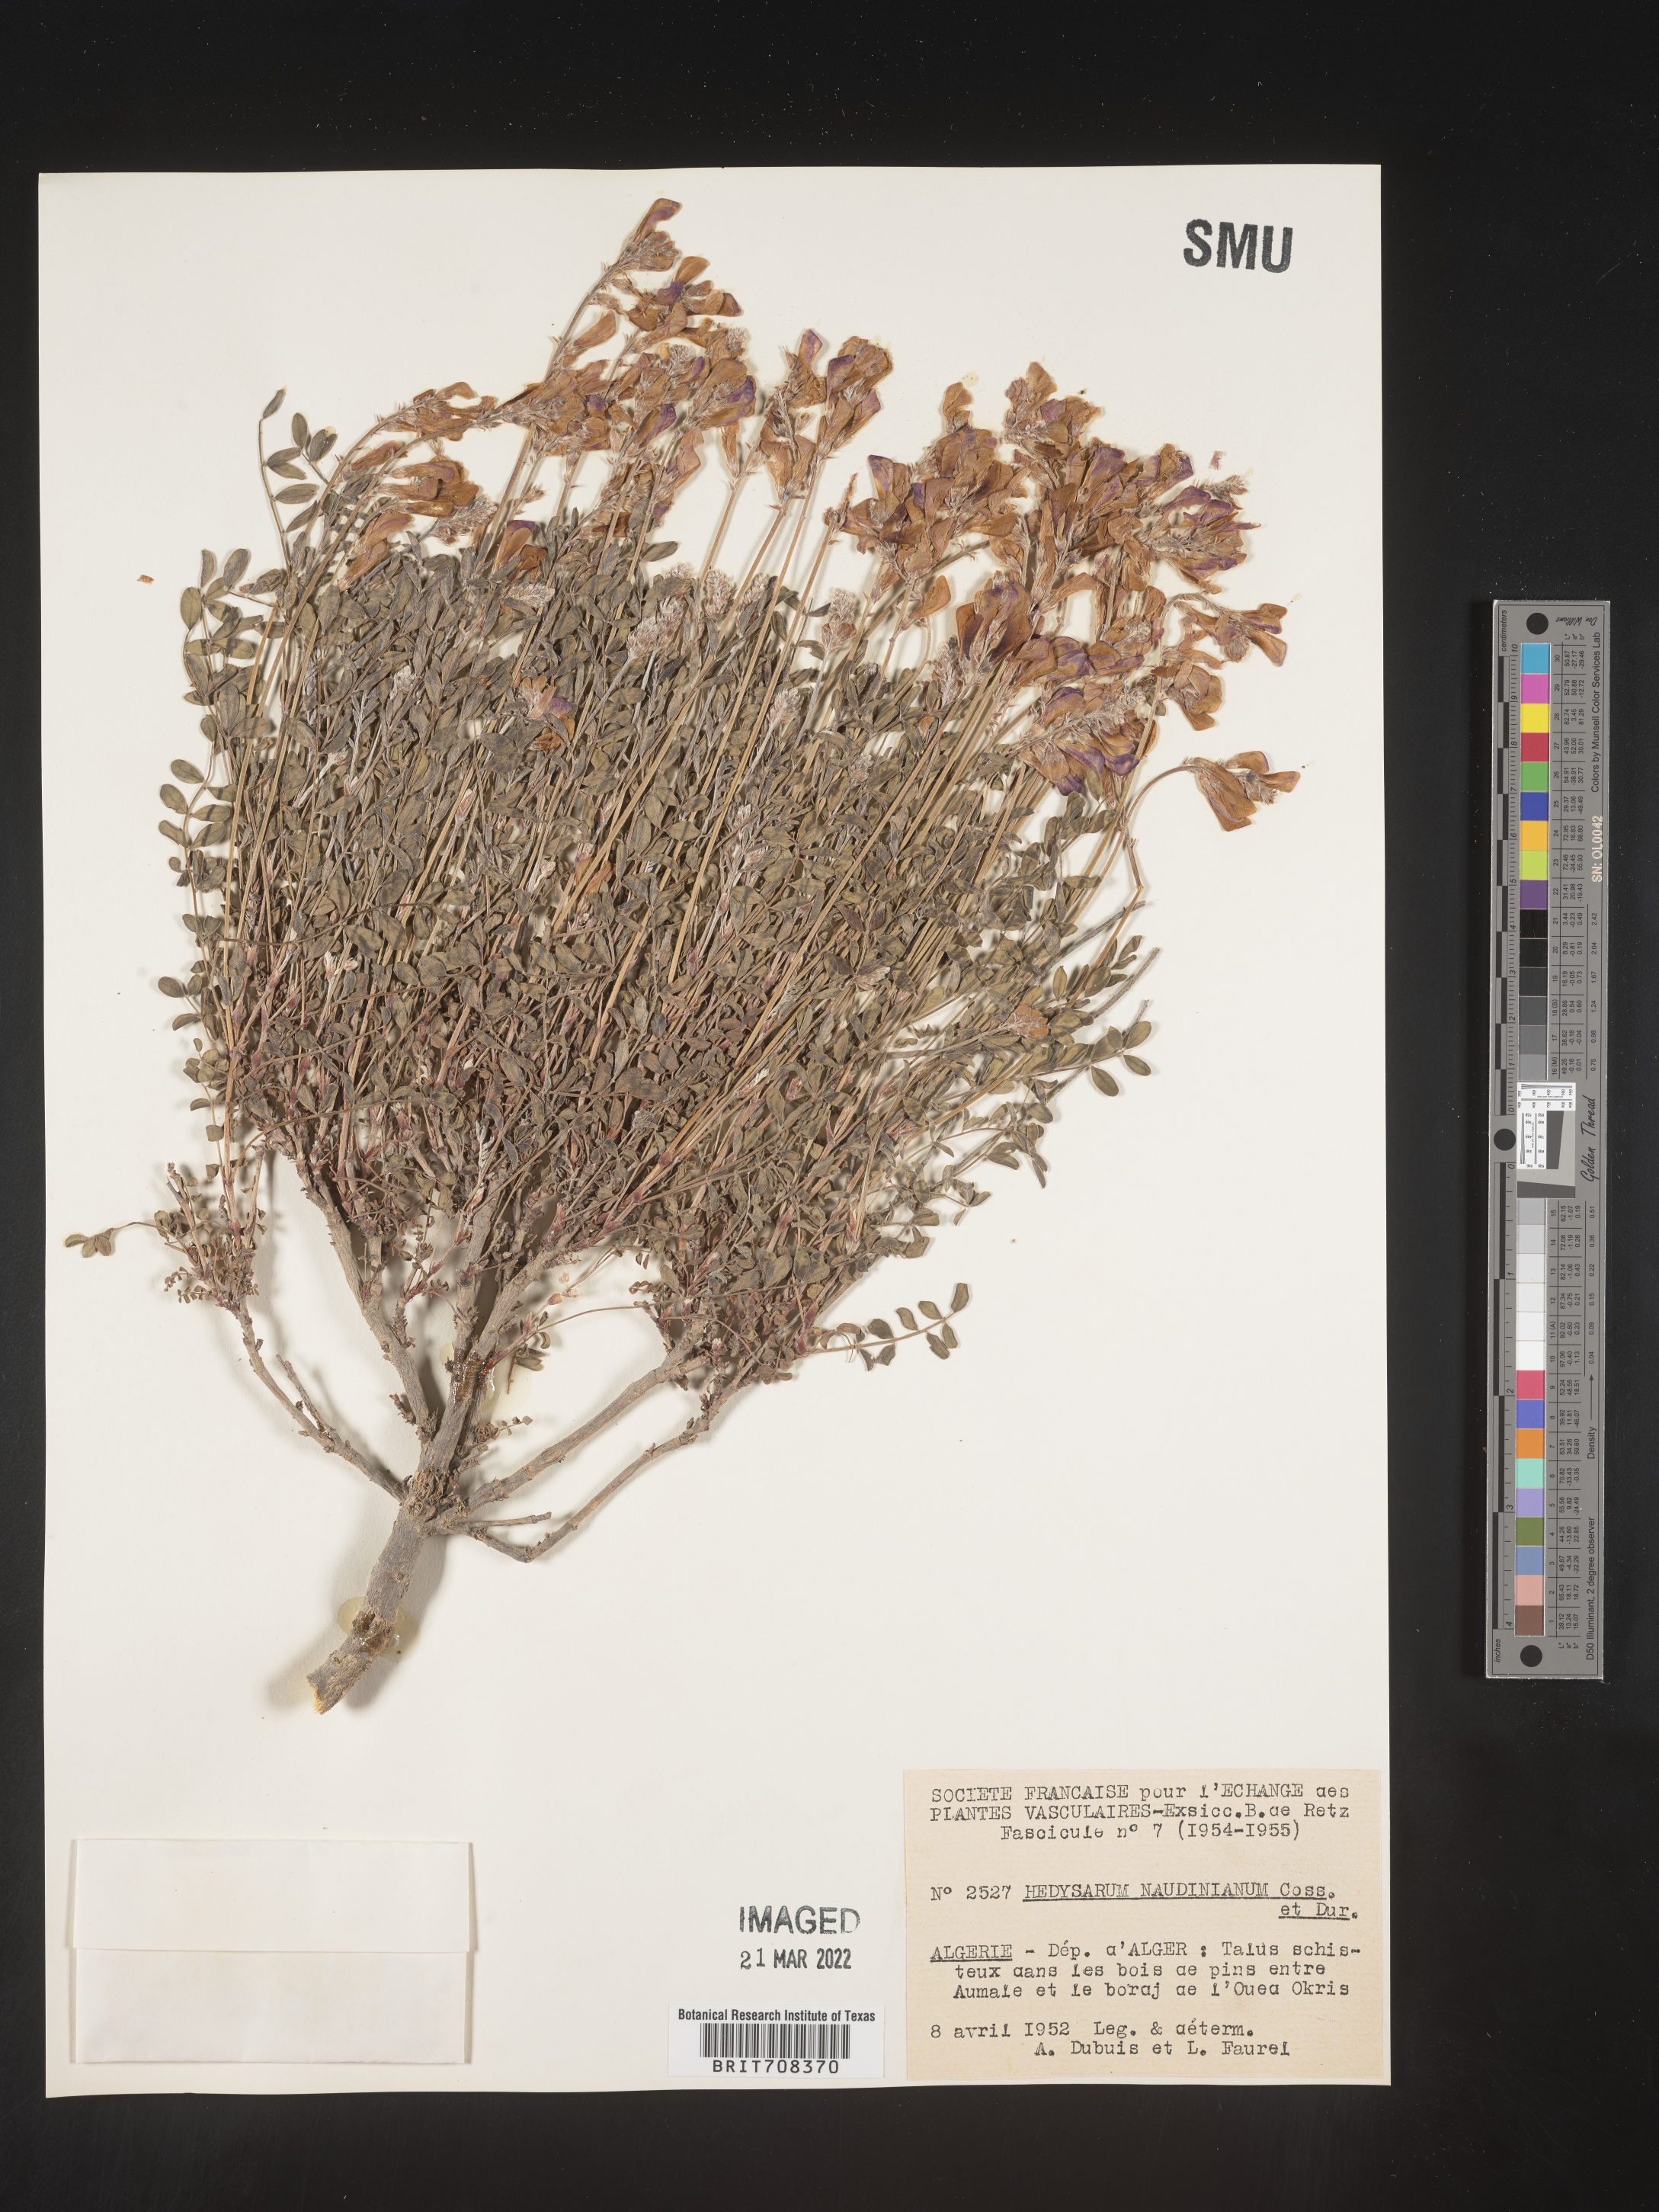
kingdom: Plantae
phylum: Tracheophyta
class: Magnoliopsida
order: Fabales
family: Fabaceae
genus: Hedysarum
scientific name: Hedysarum
